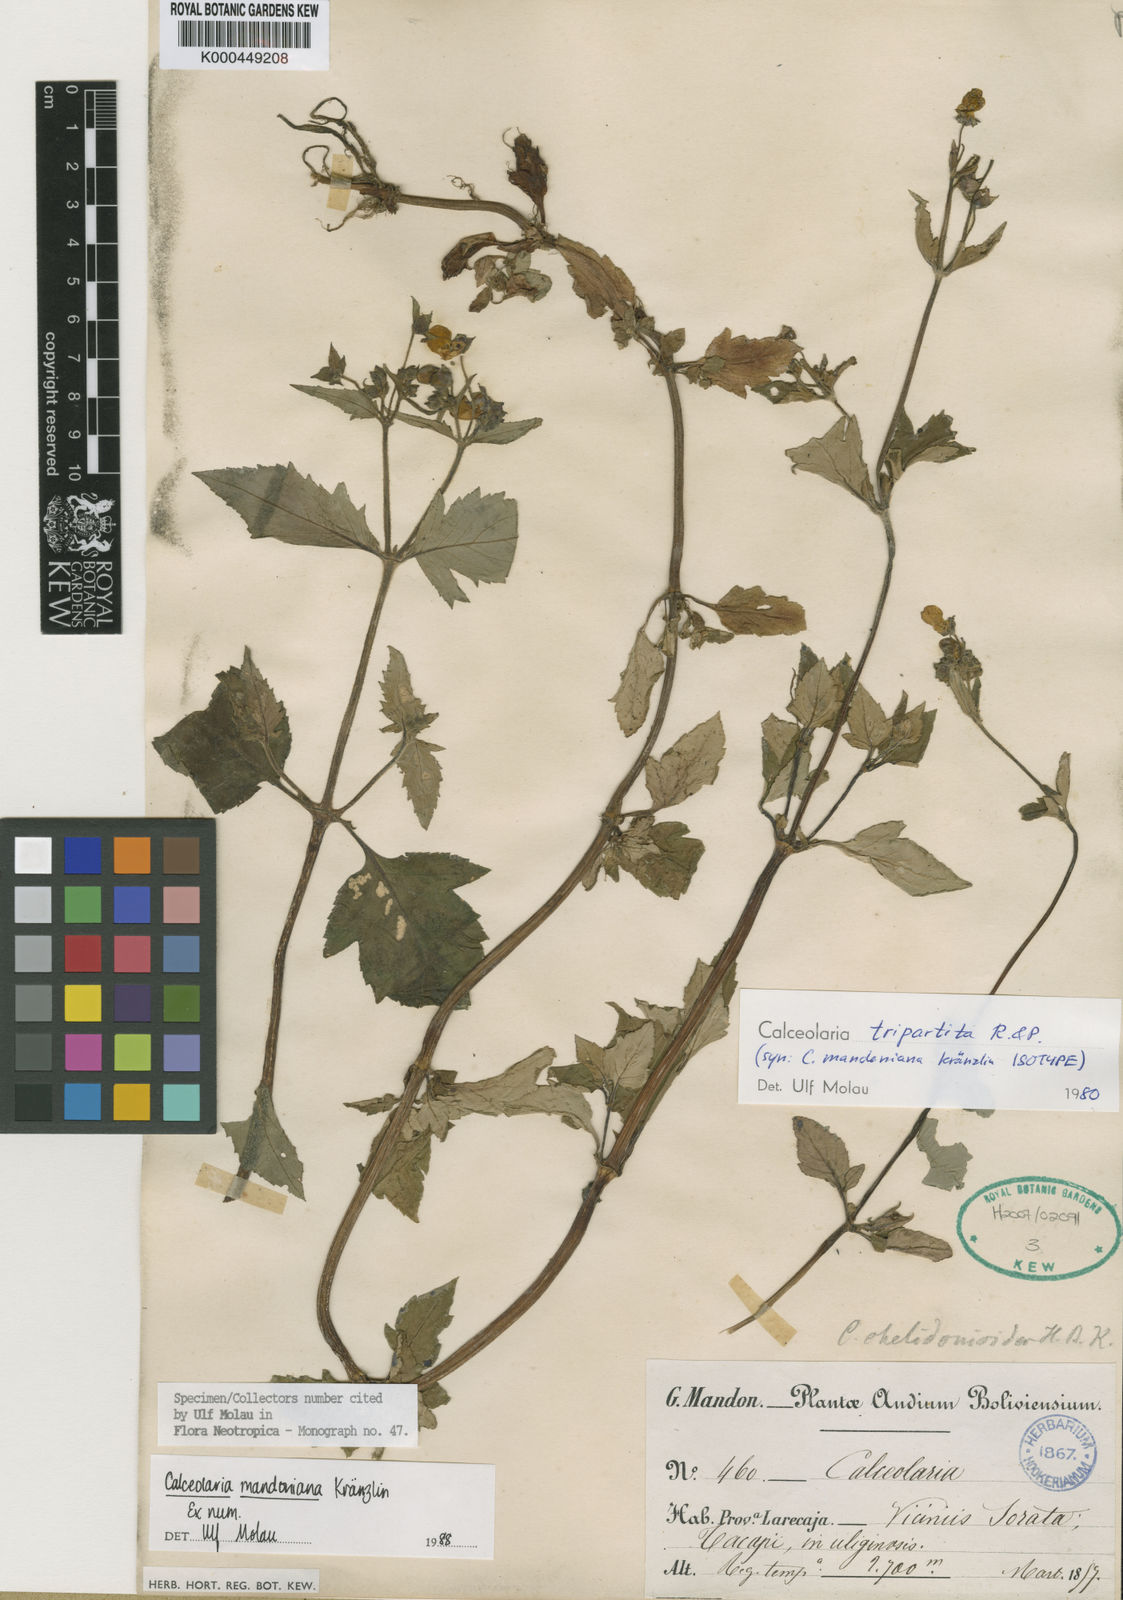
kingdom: Plantae
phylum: Tracheophyta
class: Magnoliopsida
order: Lamiales
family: Calceolariaceae
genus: Calceolaria
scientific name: Calceolaria tripartita
